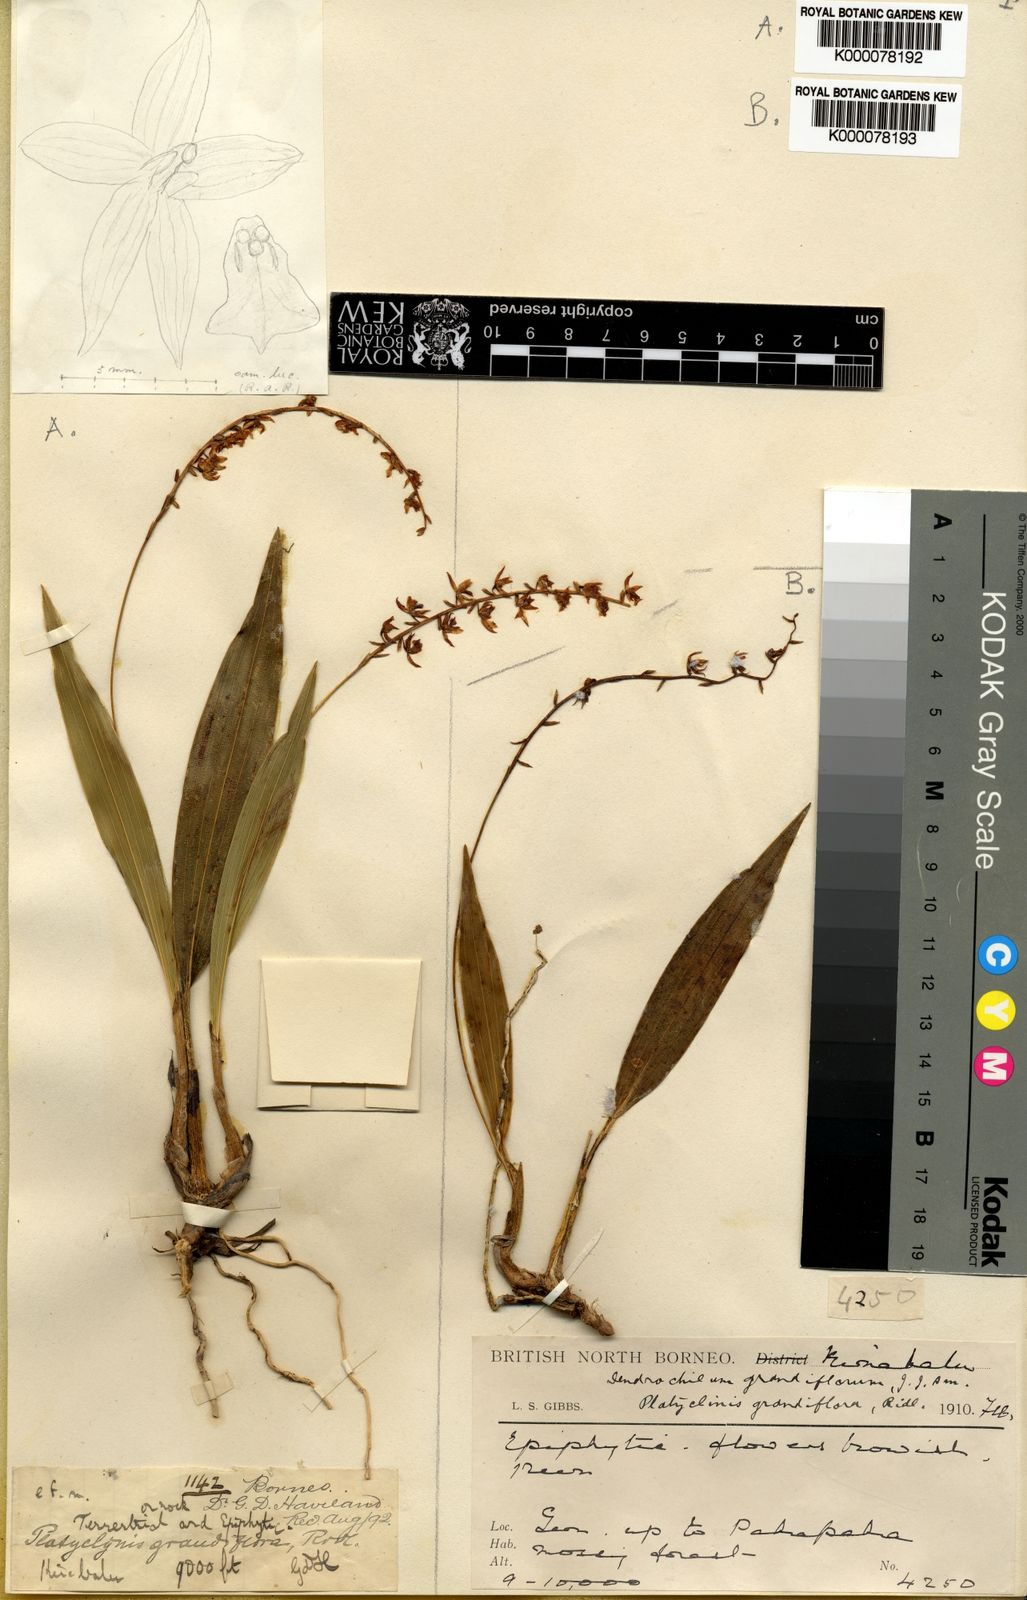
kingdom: Plantae
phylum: Tracheophyta
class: Liliopsida
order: Asparagales
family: Orchidaceae
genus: Coelogyne
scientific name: Coelogyne magniflora
